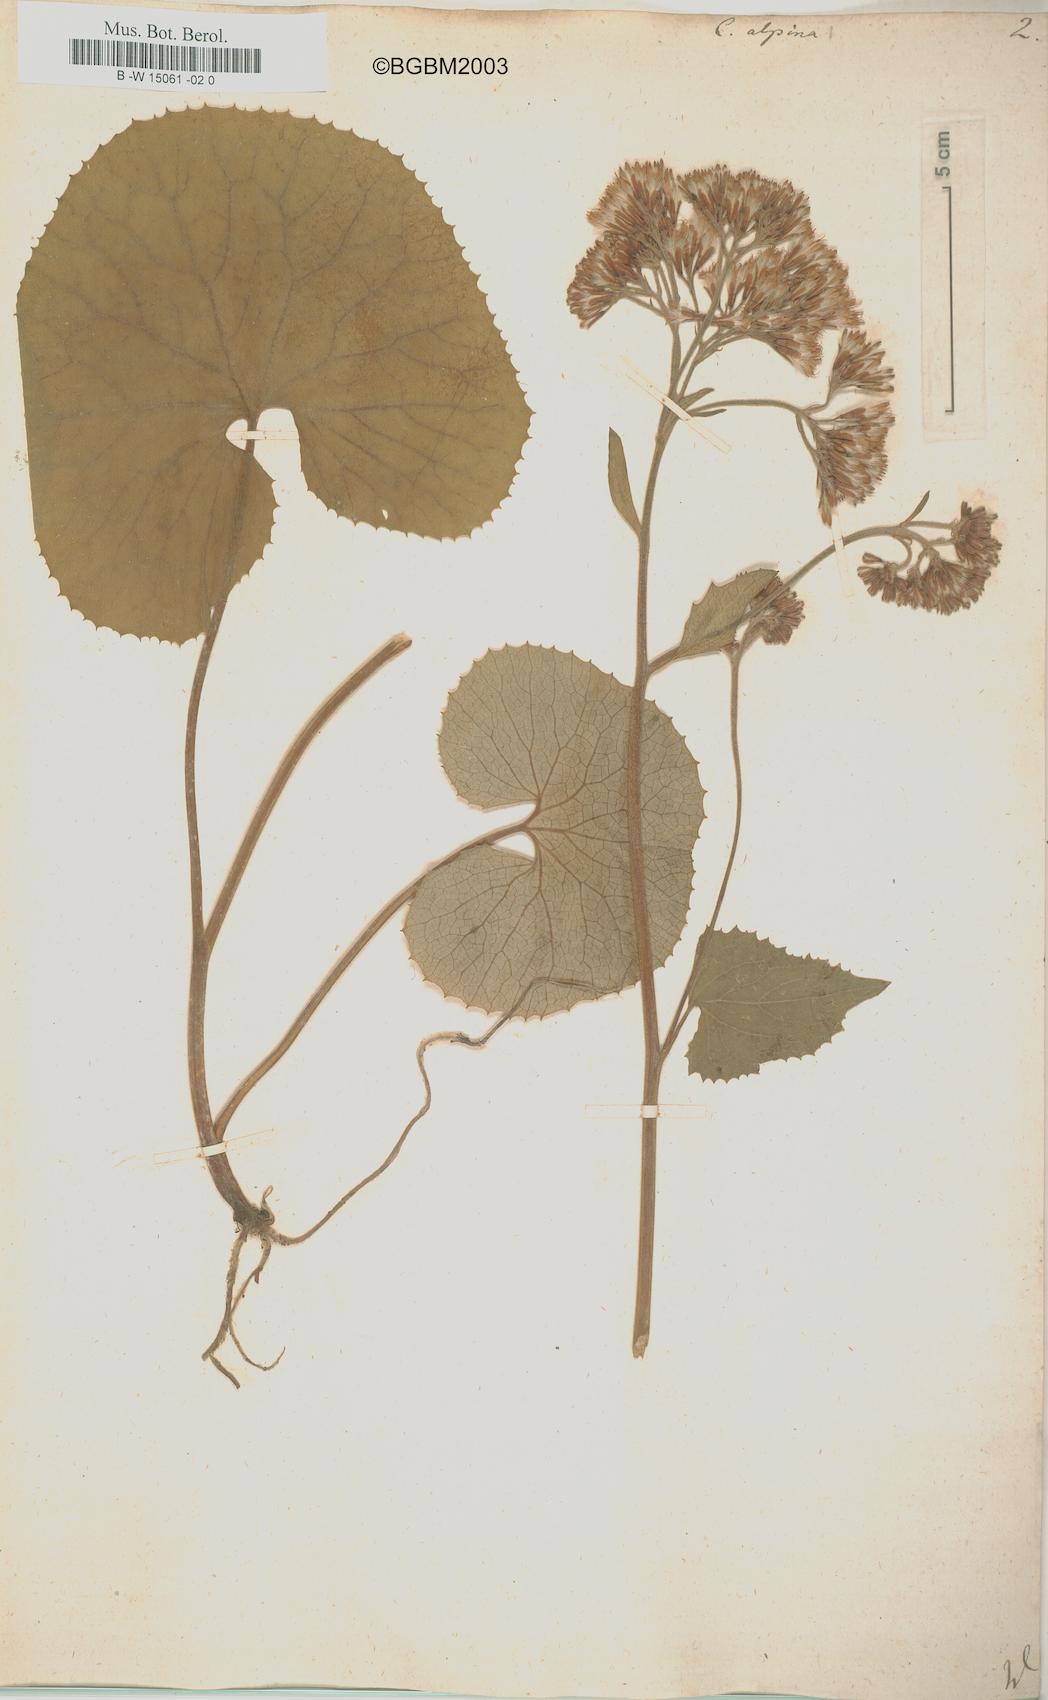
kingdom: Plantae
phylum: Tracheophyta
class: Magnoliopsida
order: Asterales
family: Asteraceae
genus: Adenostyles
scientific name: Adenostyles alpina
